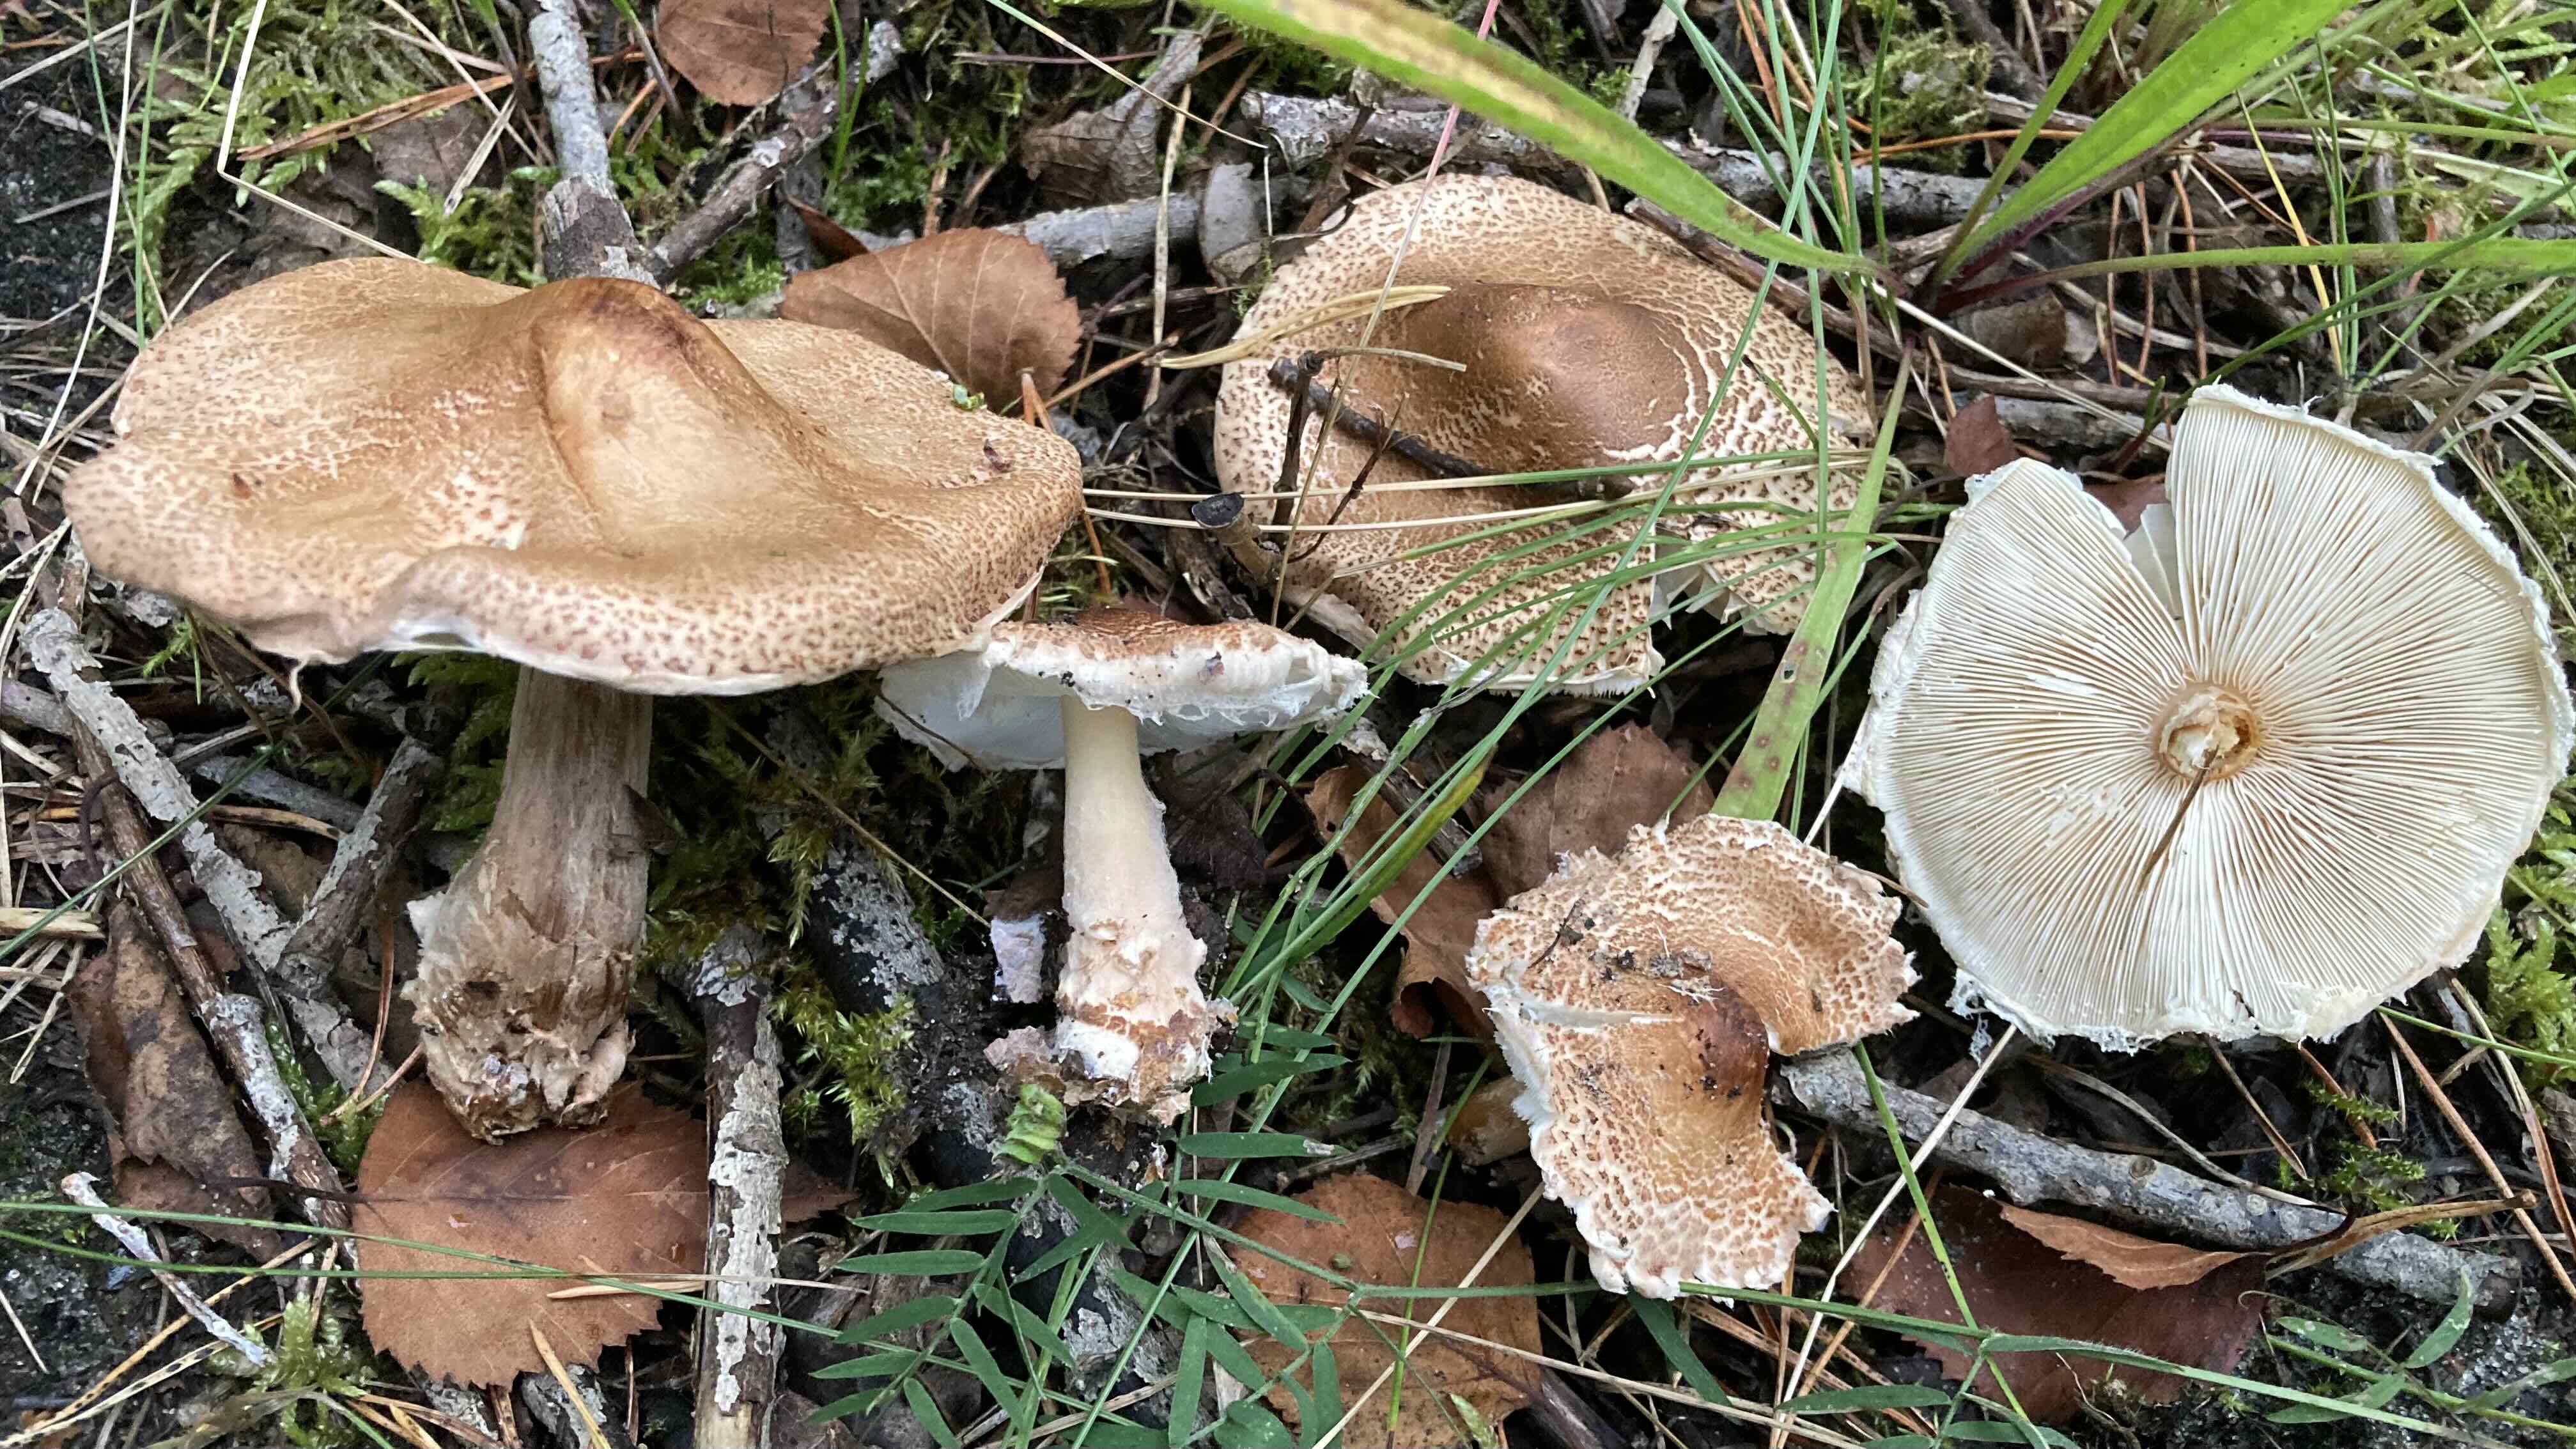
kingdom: Fungi
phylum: Basidiomycota
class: Agaricomycetes
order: Agaricales
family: Agaricaceae
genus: Lepiota
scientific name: Lepiota
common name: parasolhat
